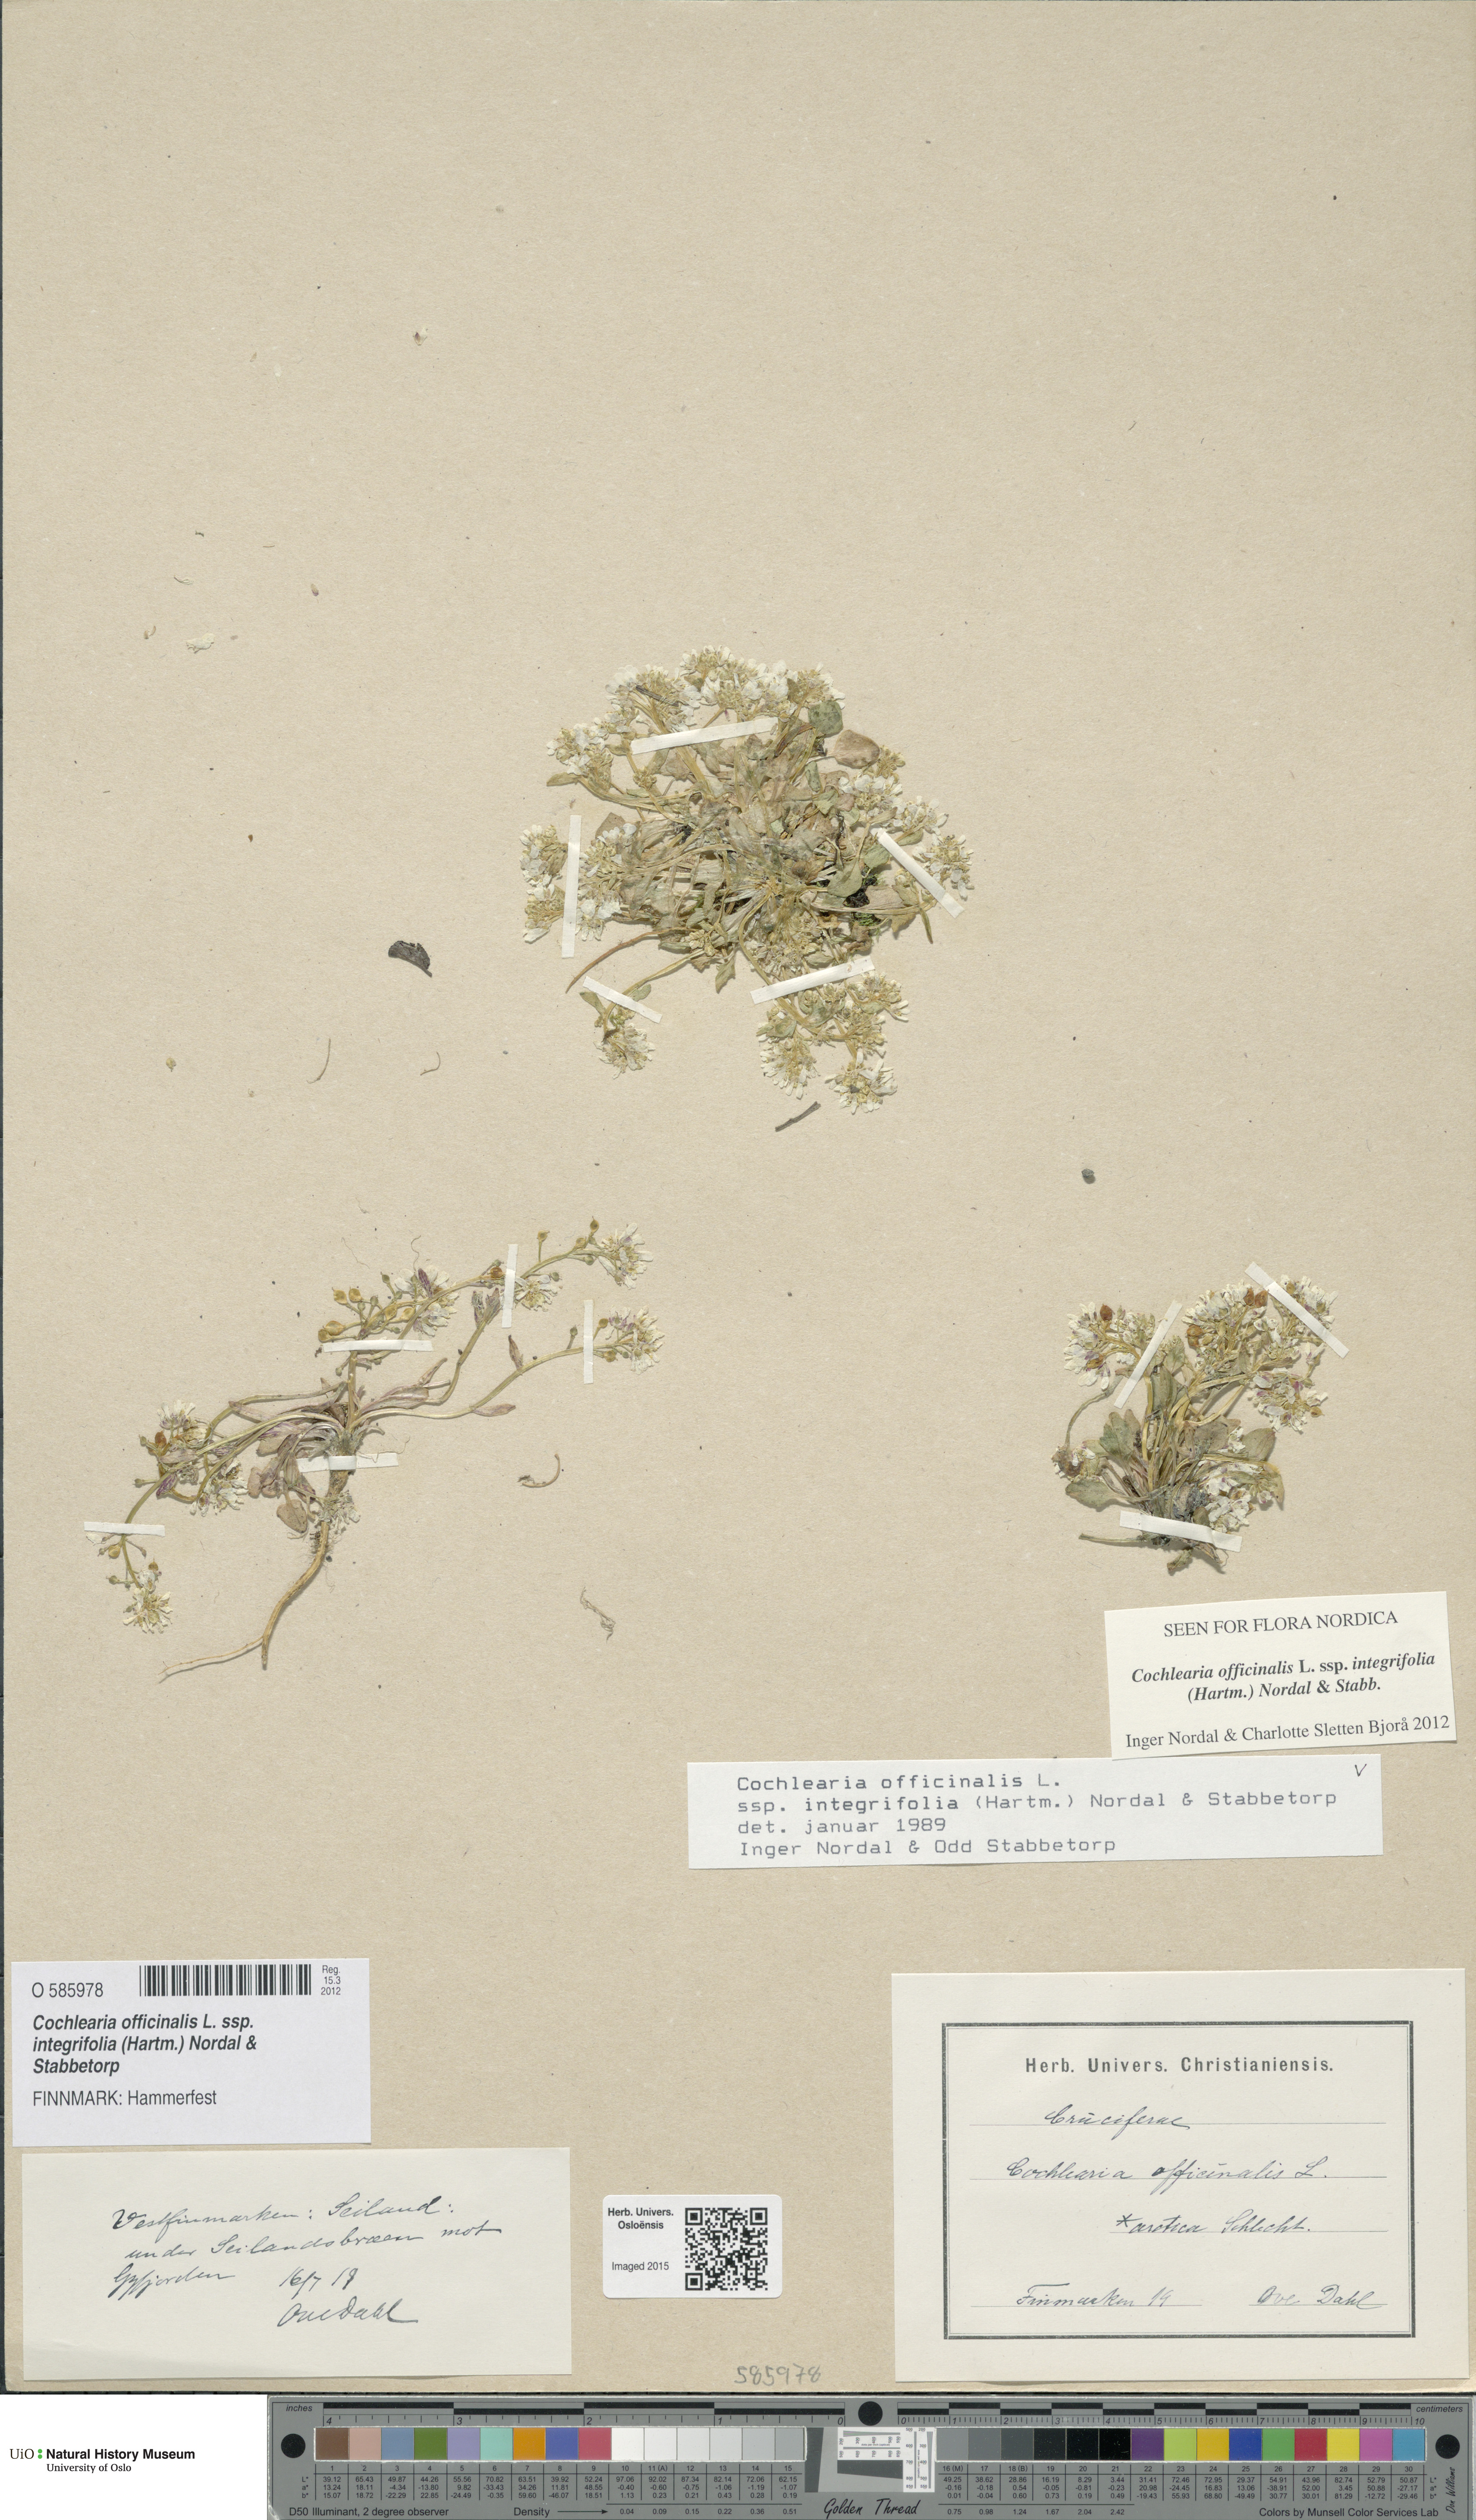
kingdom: Plantae
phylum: Tracheophyta
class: Magnoliopsida
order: Brassicales
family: Brassicaceae
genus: Cochlearia
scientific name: Cochlearia officinalis
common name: Scurvy-grass
